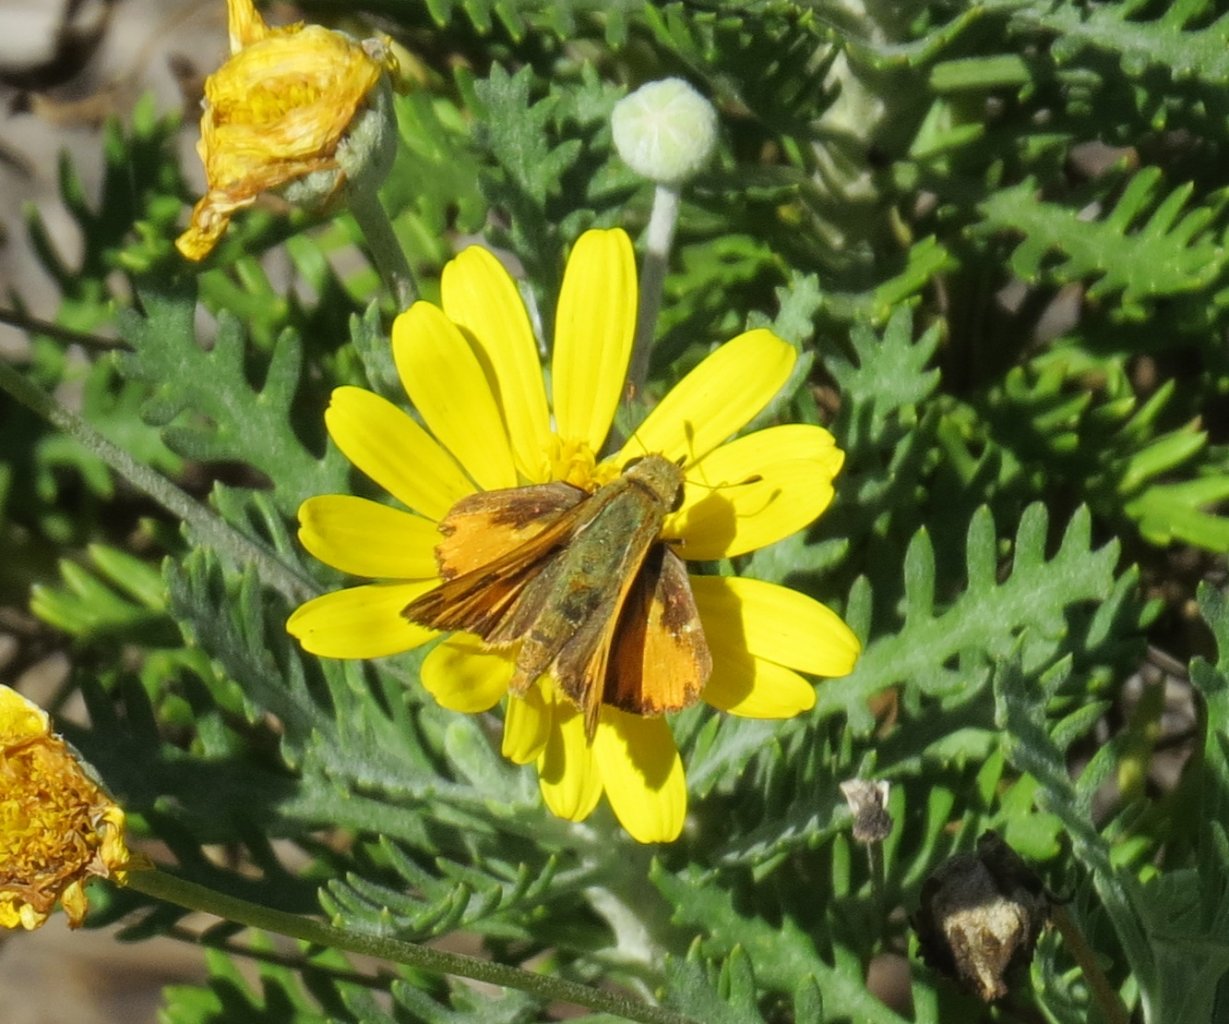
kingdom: Animalia
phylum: Arthropoda
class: Insecta
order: Lepidoptera
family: Hesperiidae
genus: Hylephila
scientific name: Hylephila phyleus
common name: Fiery Skipper
